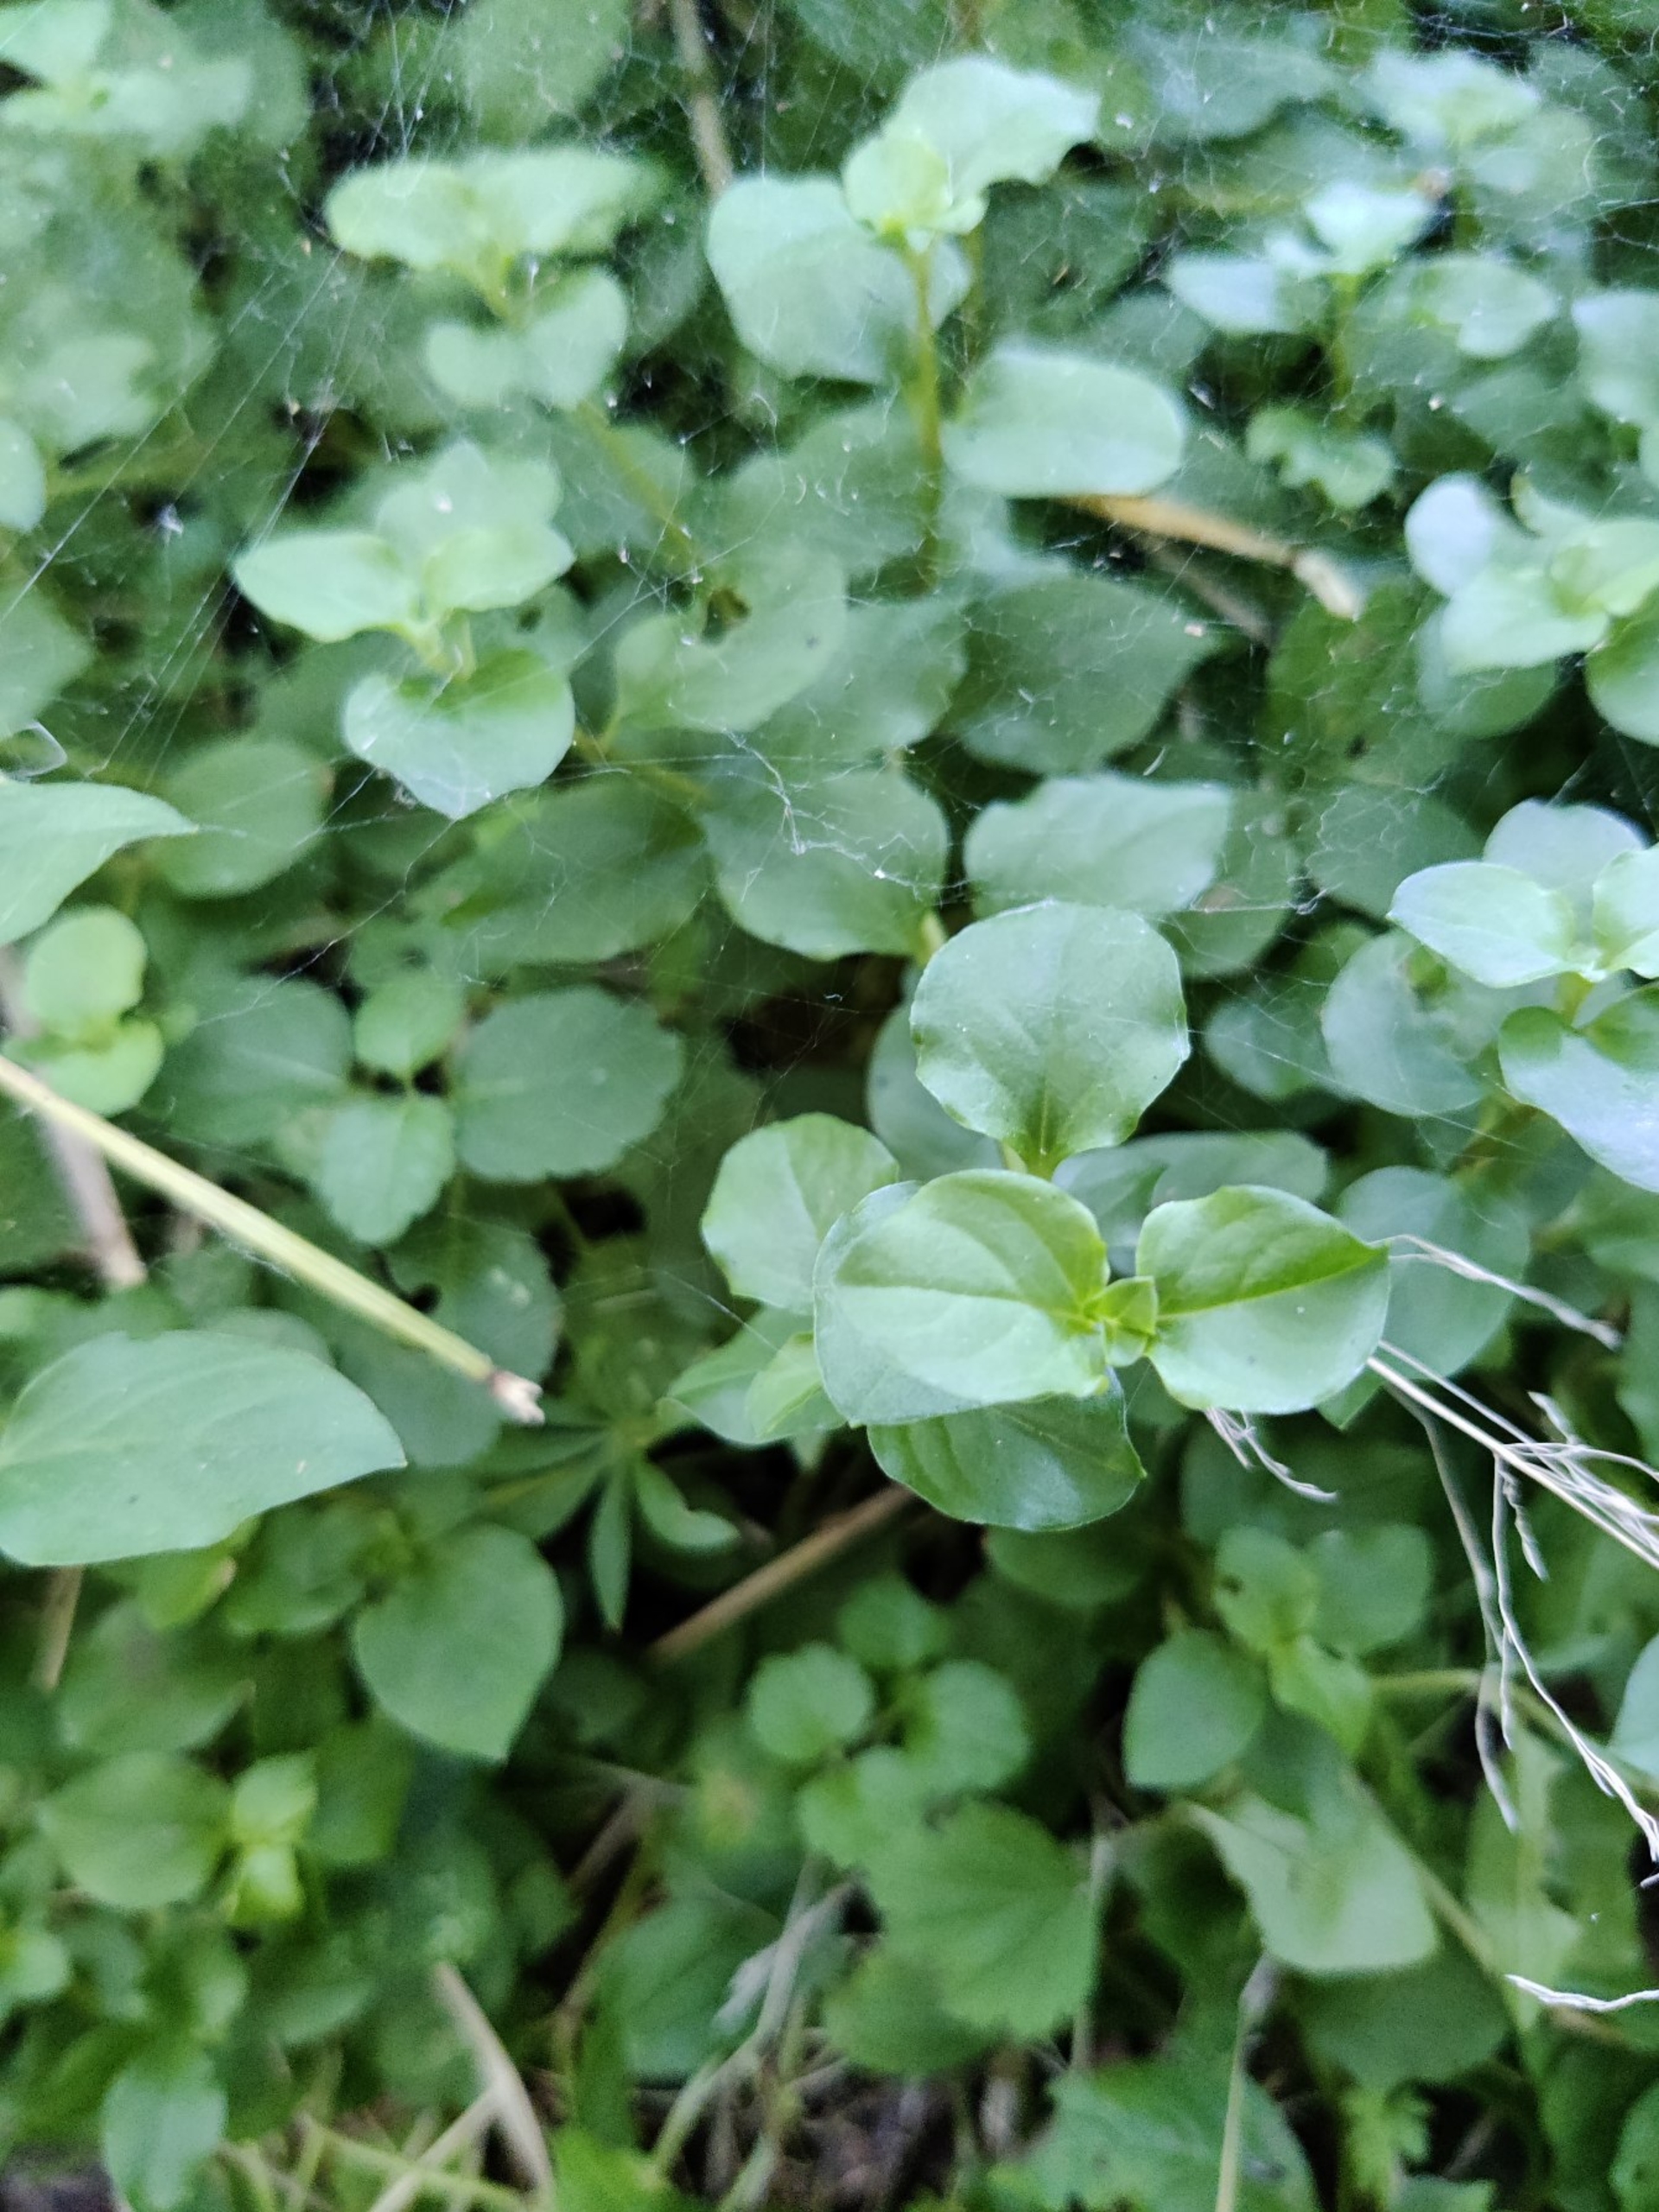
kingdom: Plantae
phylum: Tracheophyta
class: Magnoliopsida
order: Ericales
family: Primulaceae
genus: Lysimachia
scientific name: Lysimachia nemorum
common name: Lund-fredløs
